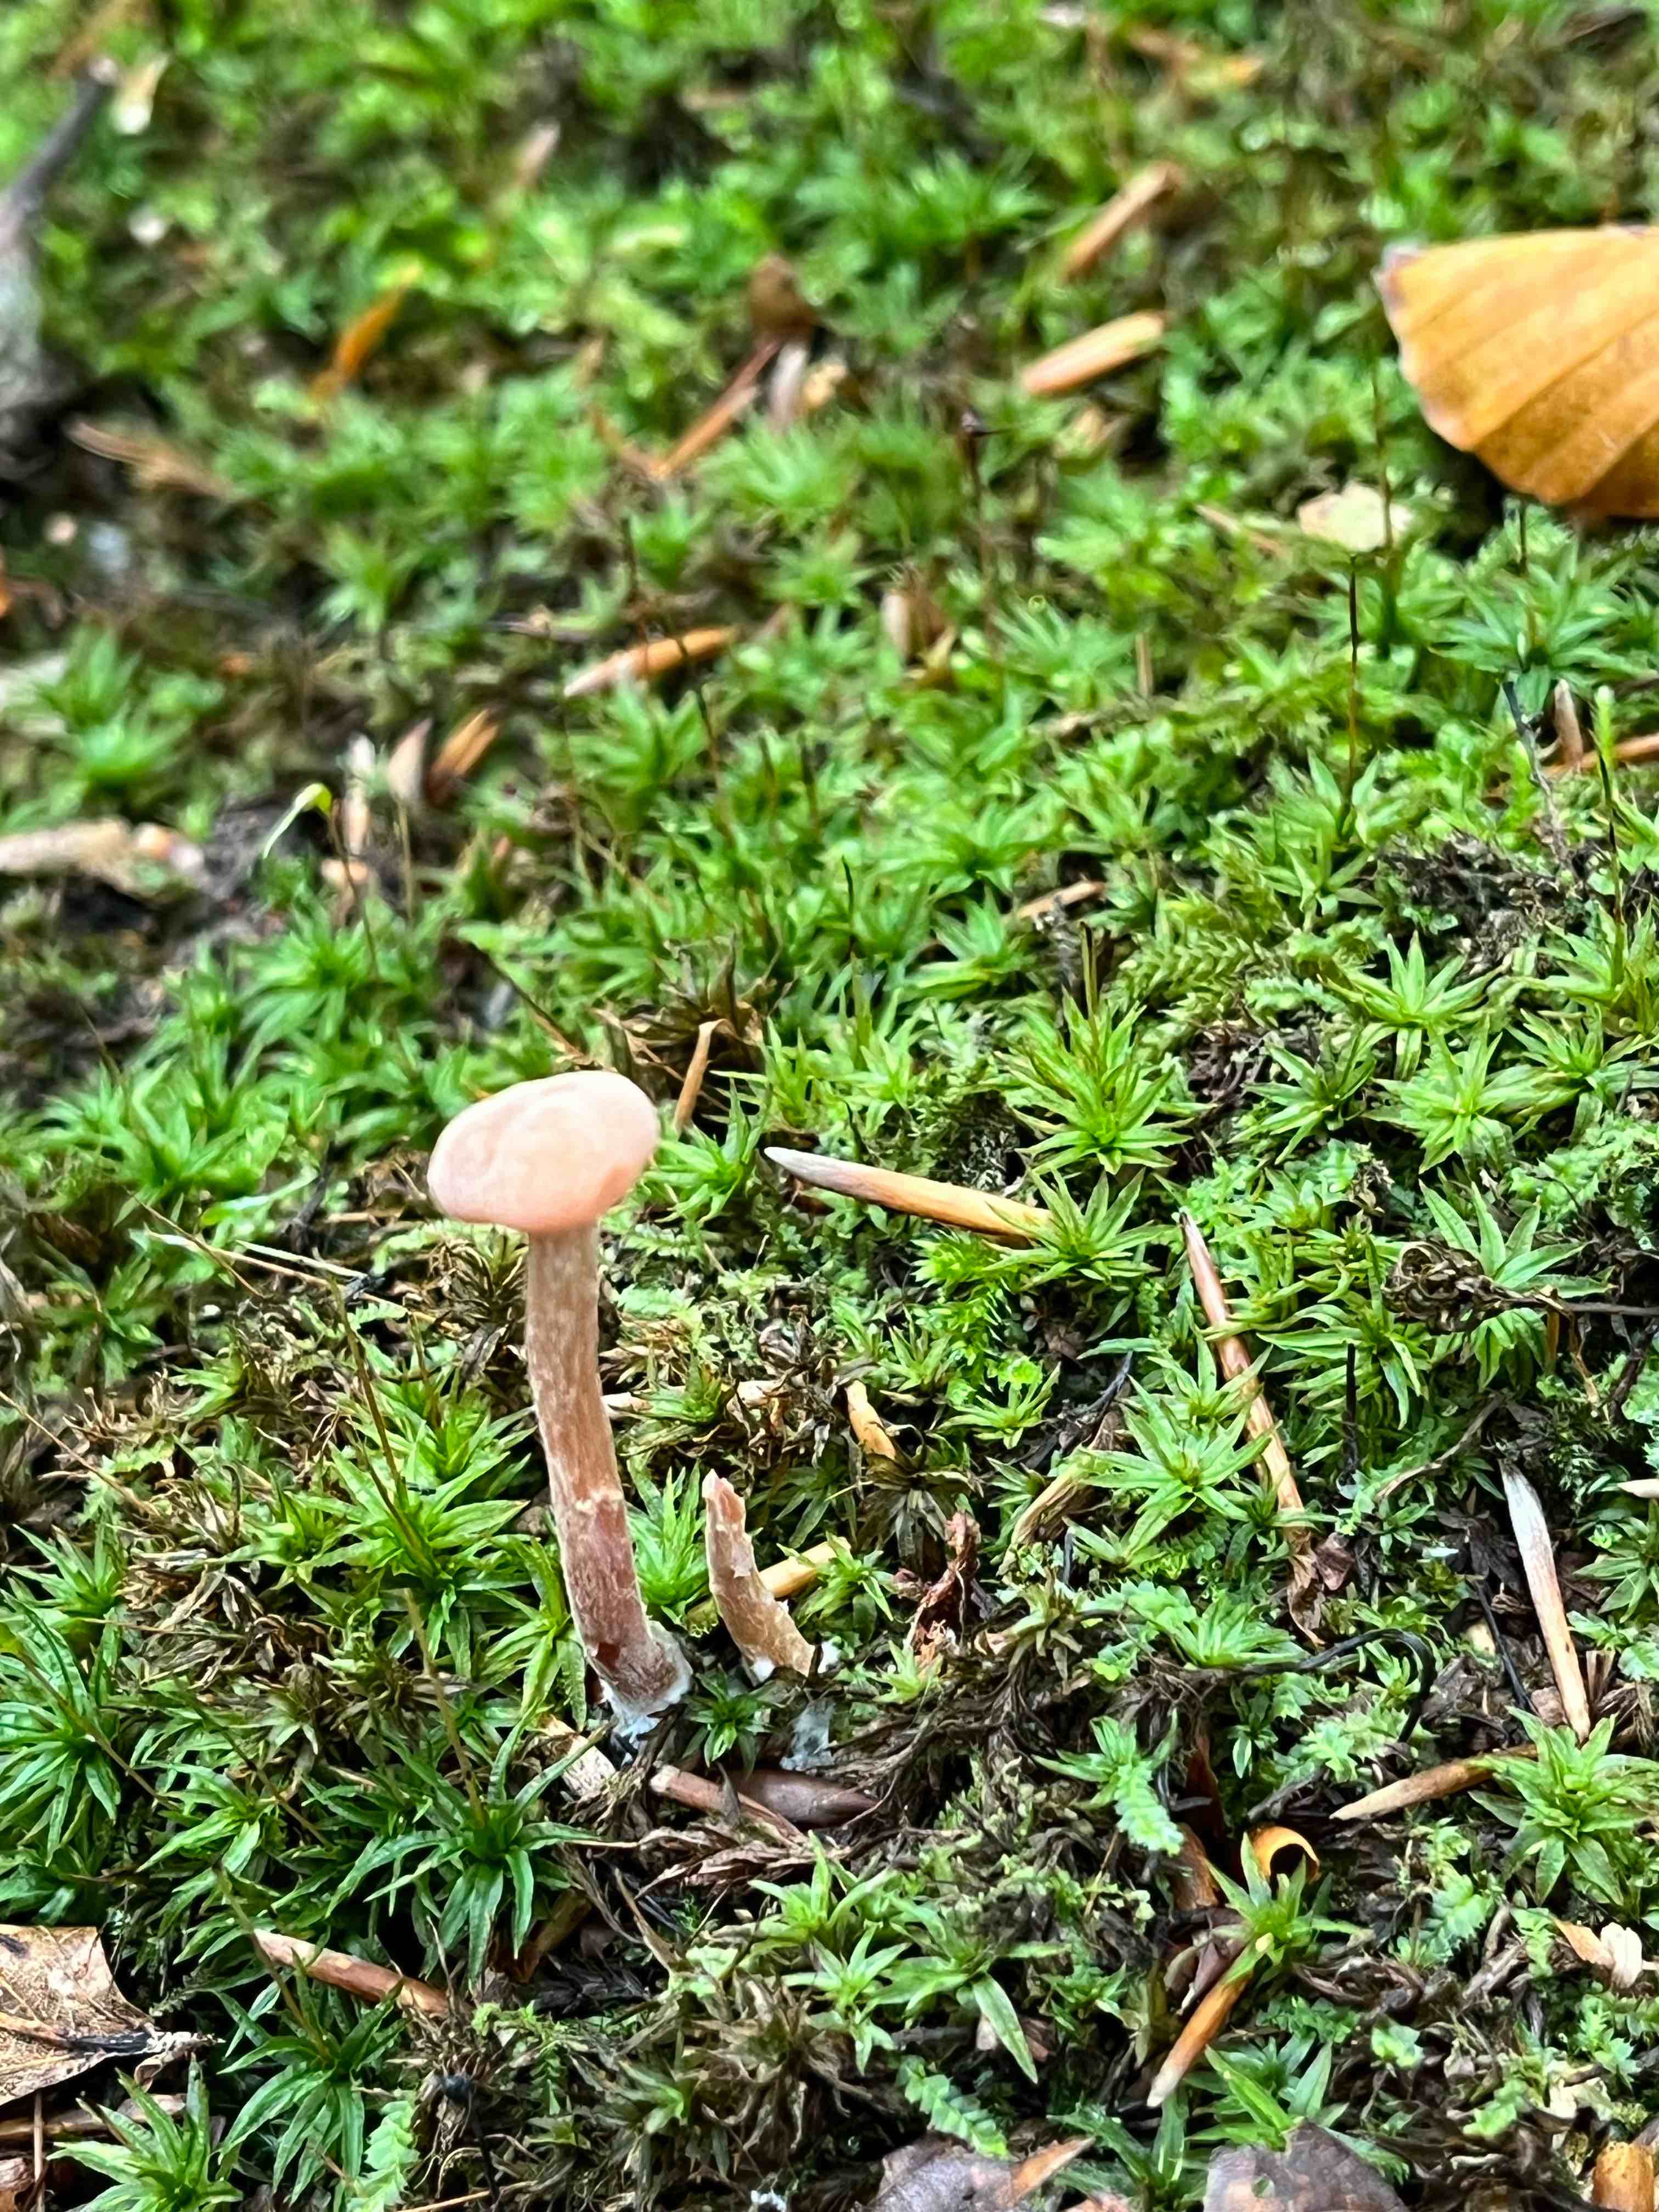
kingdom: Fungi
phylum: Basidiomycota
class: Agaricomycetes
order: Agaricales
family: Hydnangiaceae
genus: Laccaria
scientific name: Laccaria laccata
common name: rød ametysthat
